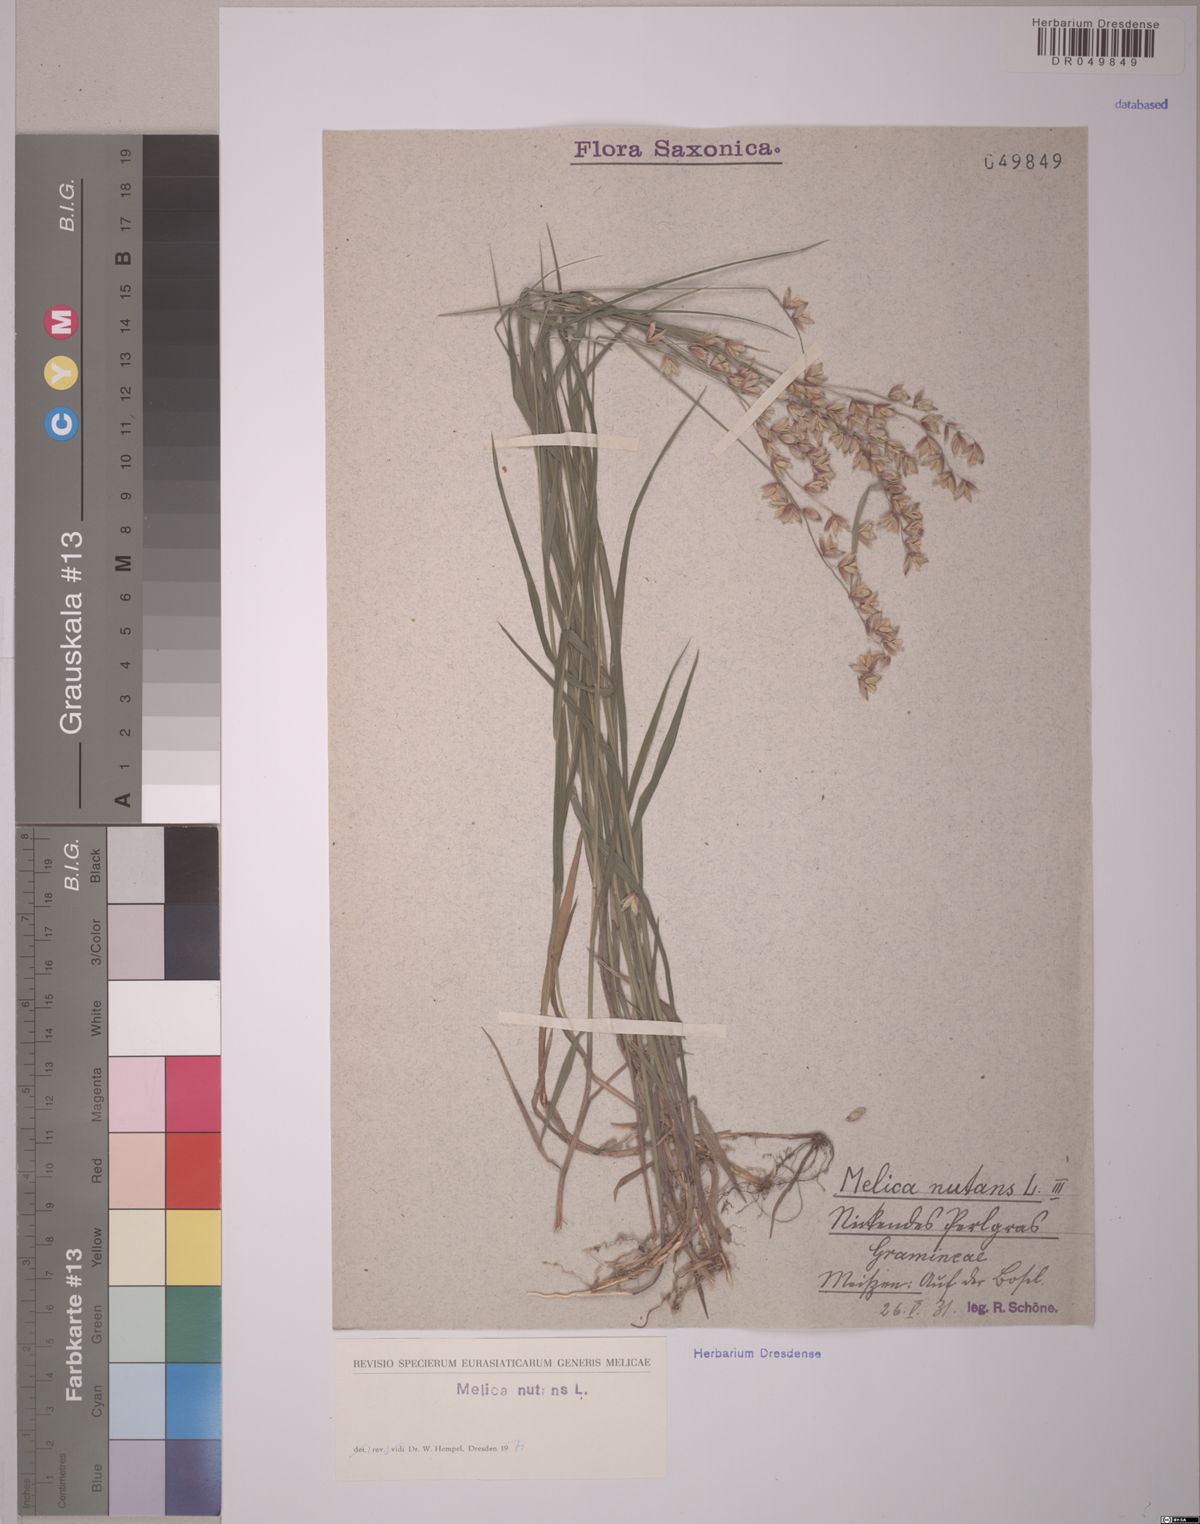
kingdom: Plantae
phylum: Tracheophyta
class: Liliopsida
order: Poales
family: Poaceae
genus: Melica
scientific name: Melica nutans
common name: Mountain melick
